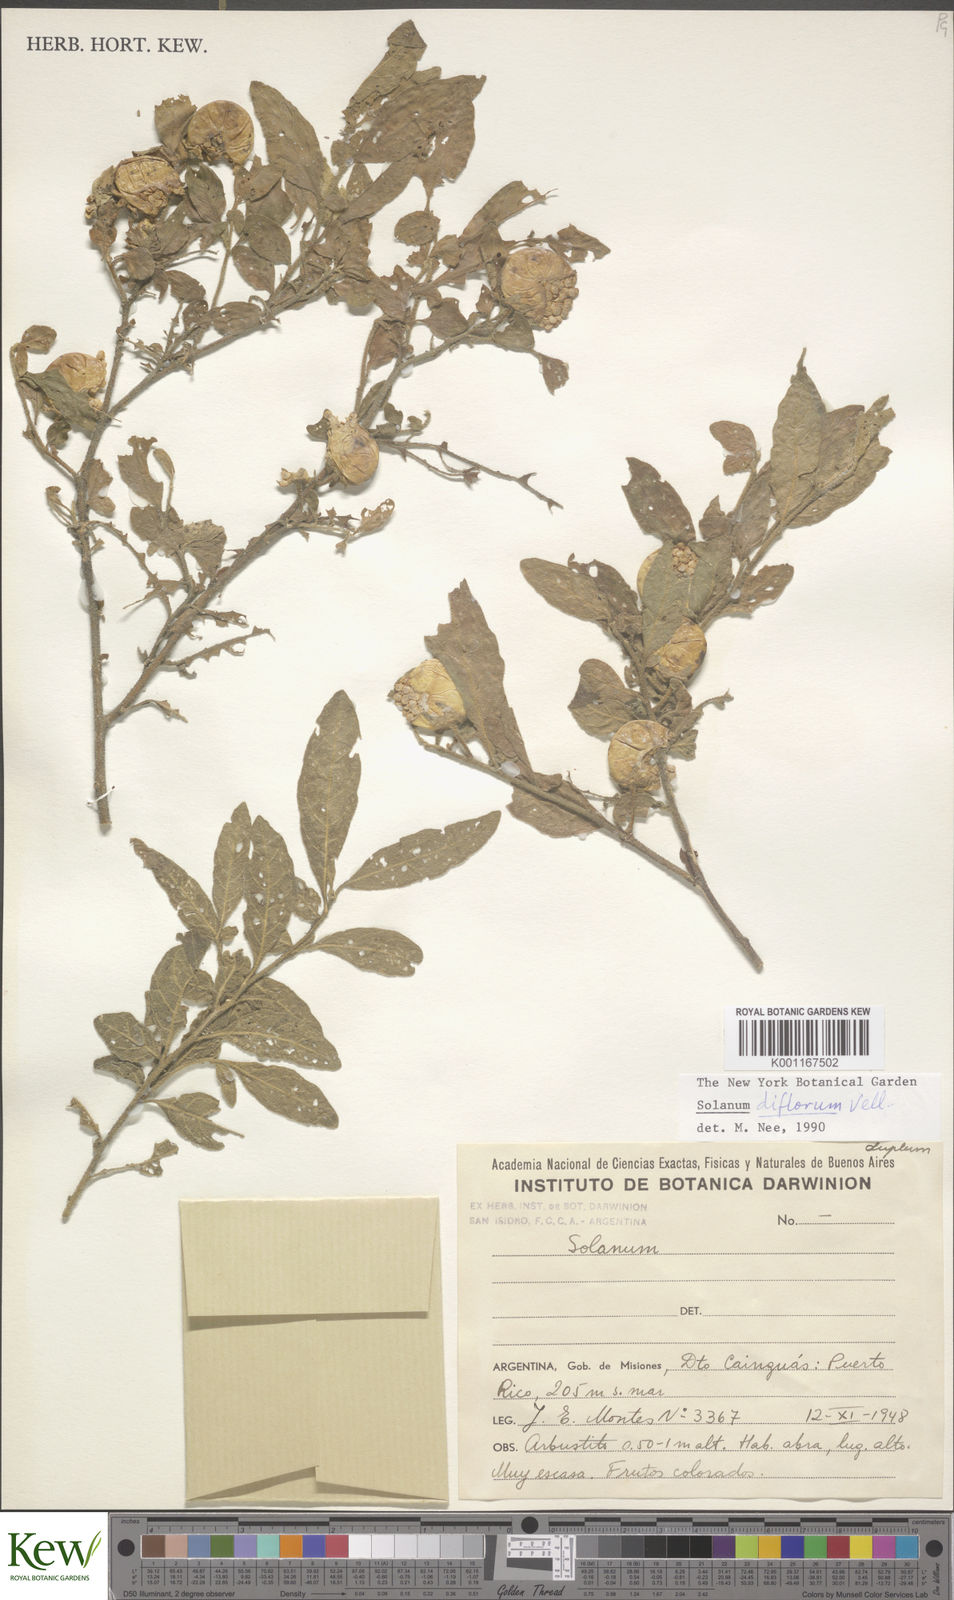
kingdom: Plantae
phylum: Tracheophyta
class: Magnoliopsida
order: Solanales
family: Solanaceae
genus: Solanum
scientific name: Solanum pseudocapsicum
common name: Jerusalem cherry
